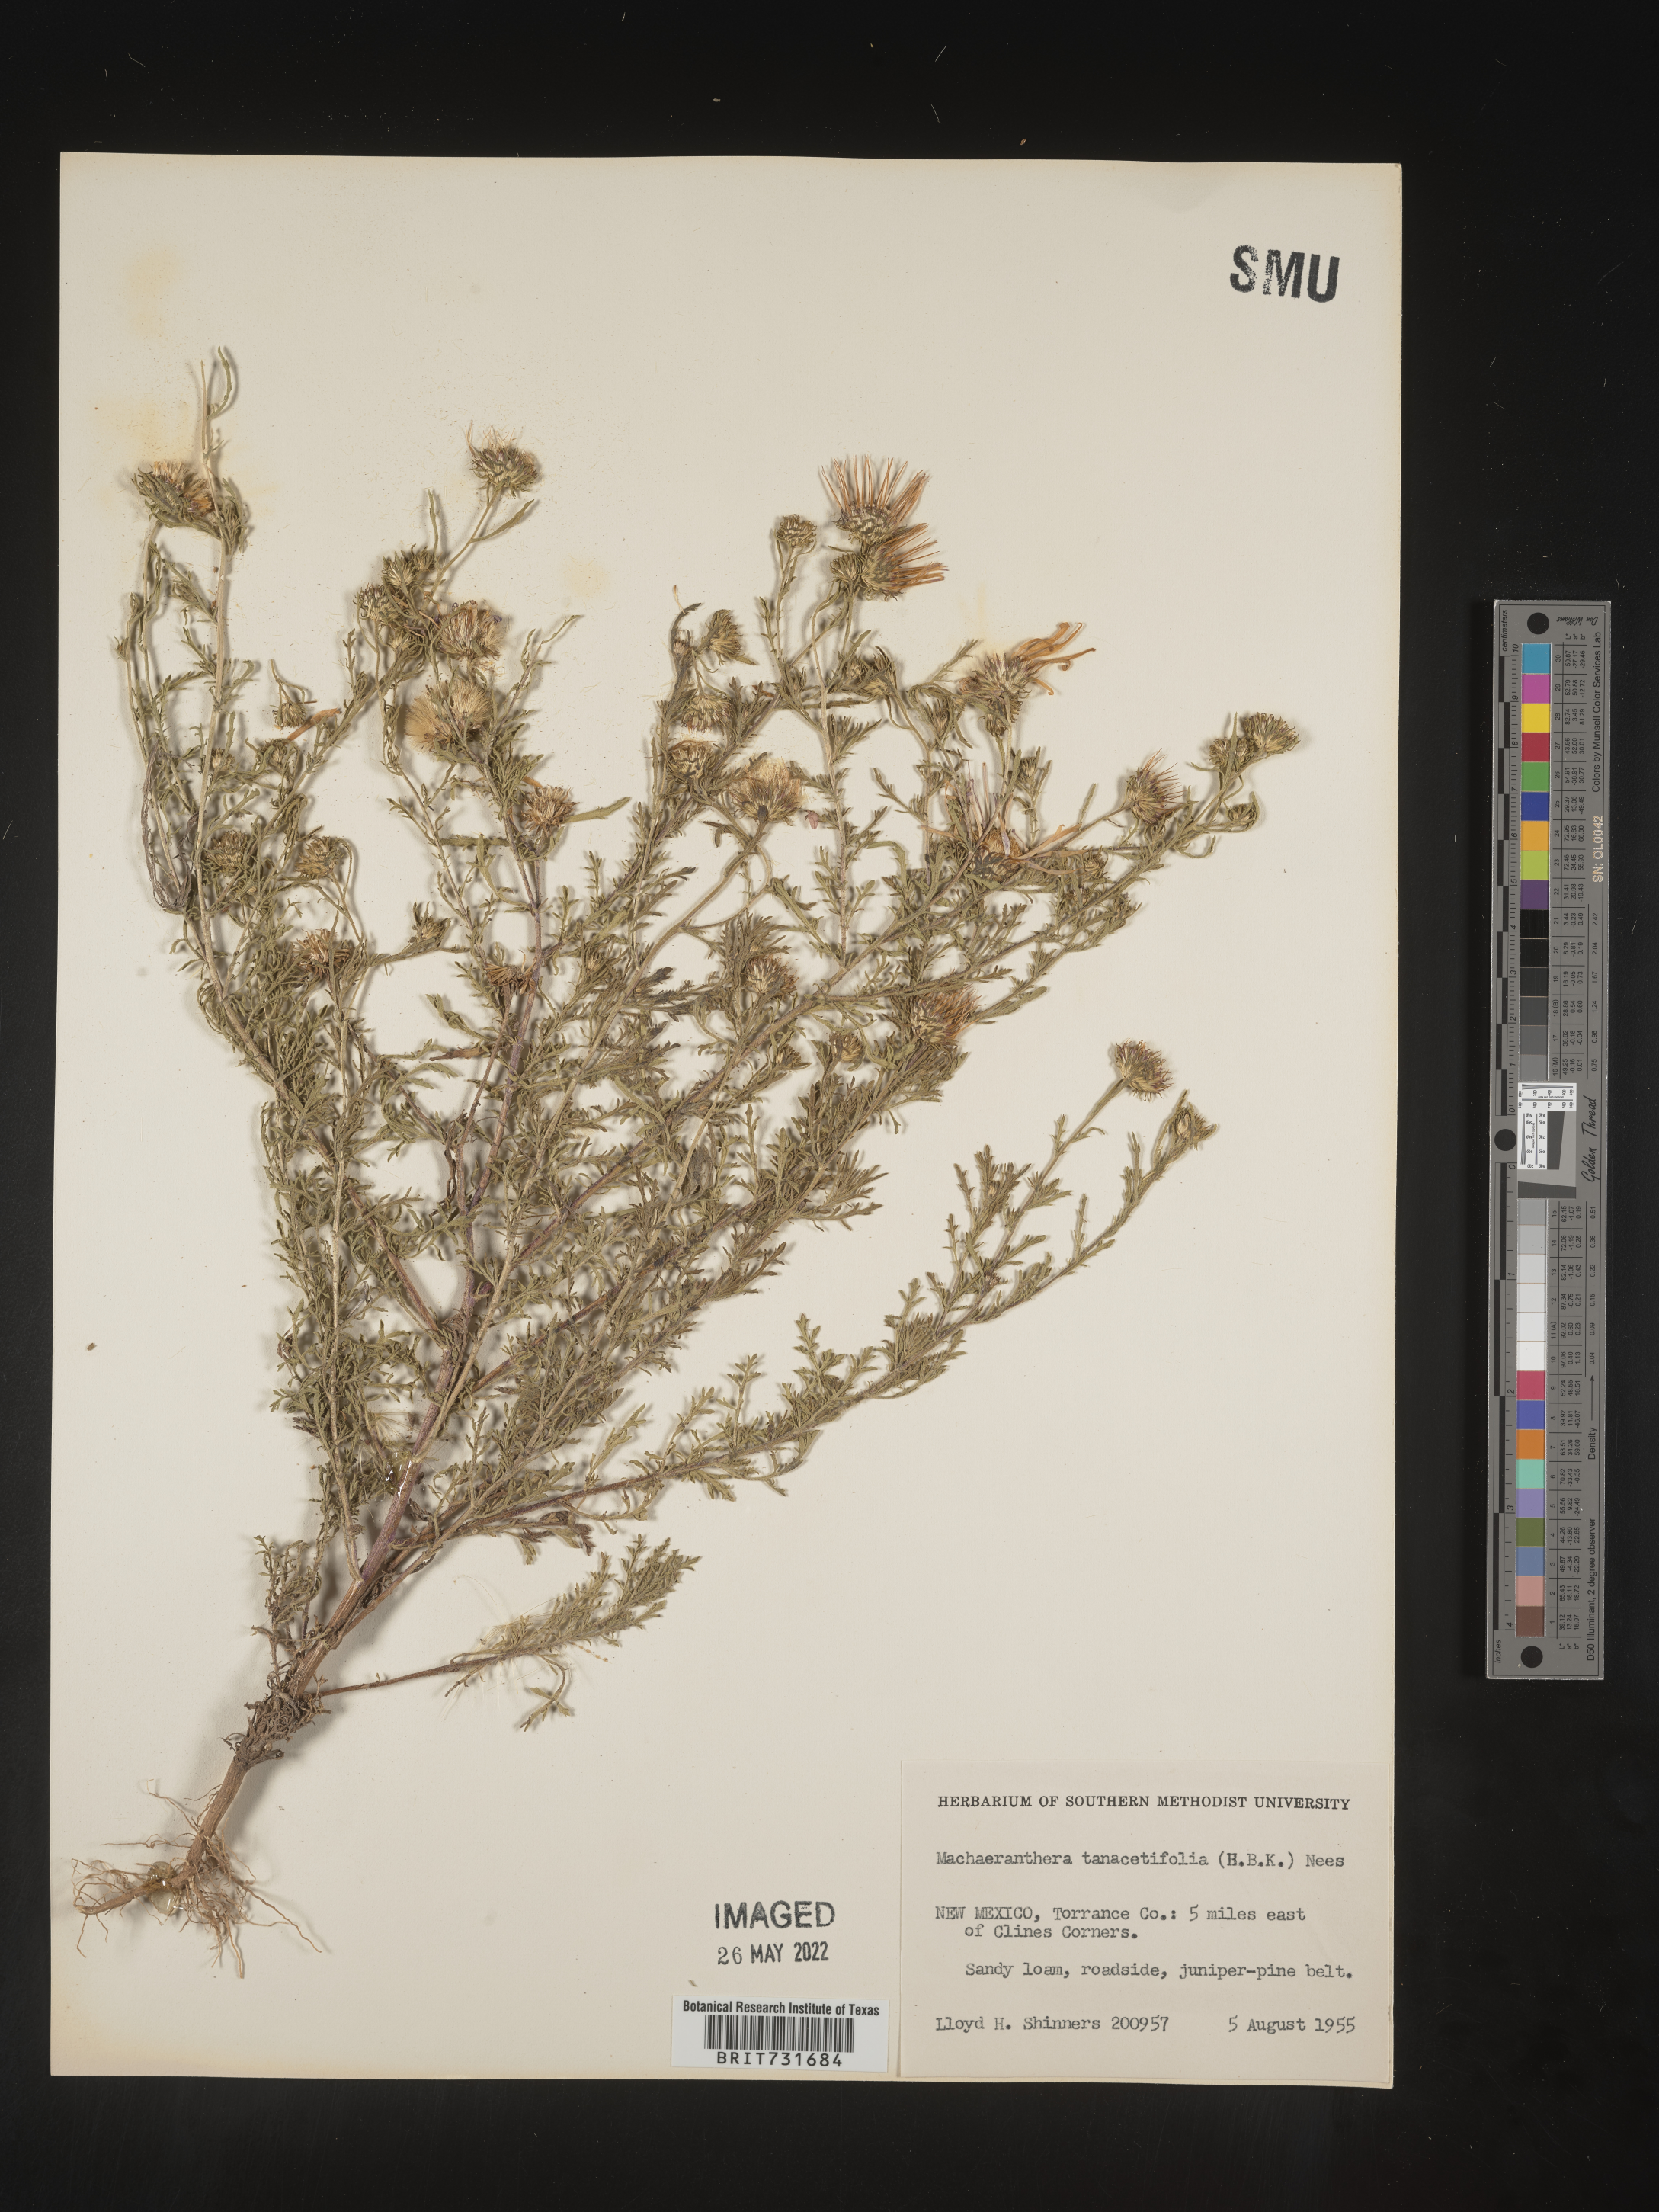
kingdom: Plantae
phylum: Tracheophyta
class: Magnoliopsida
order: Asterales
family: Asteraceae
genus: Machaeranthera
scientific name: Machaeranthera tanacetifolia
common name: Tansy-aster
